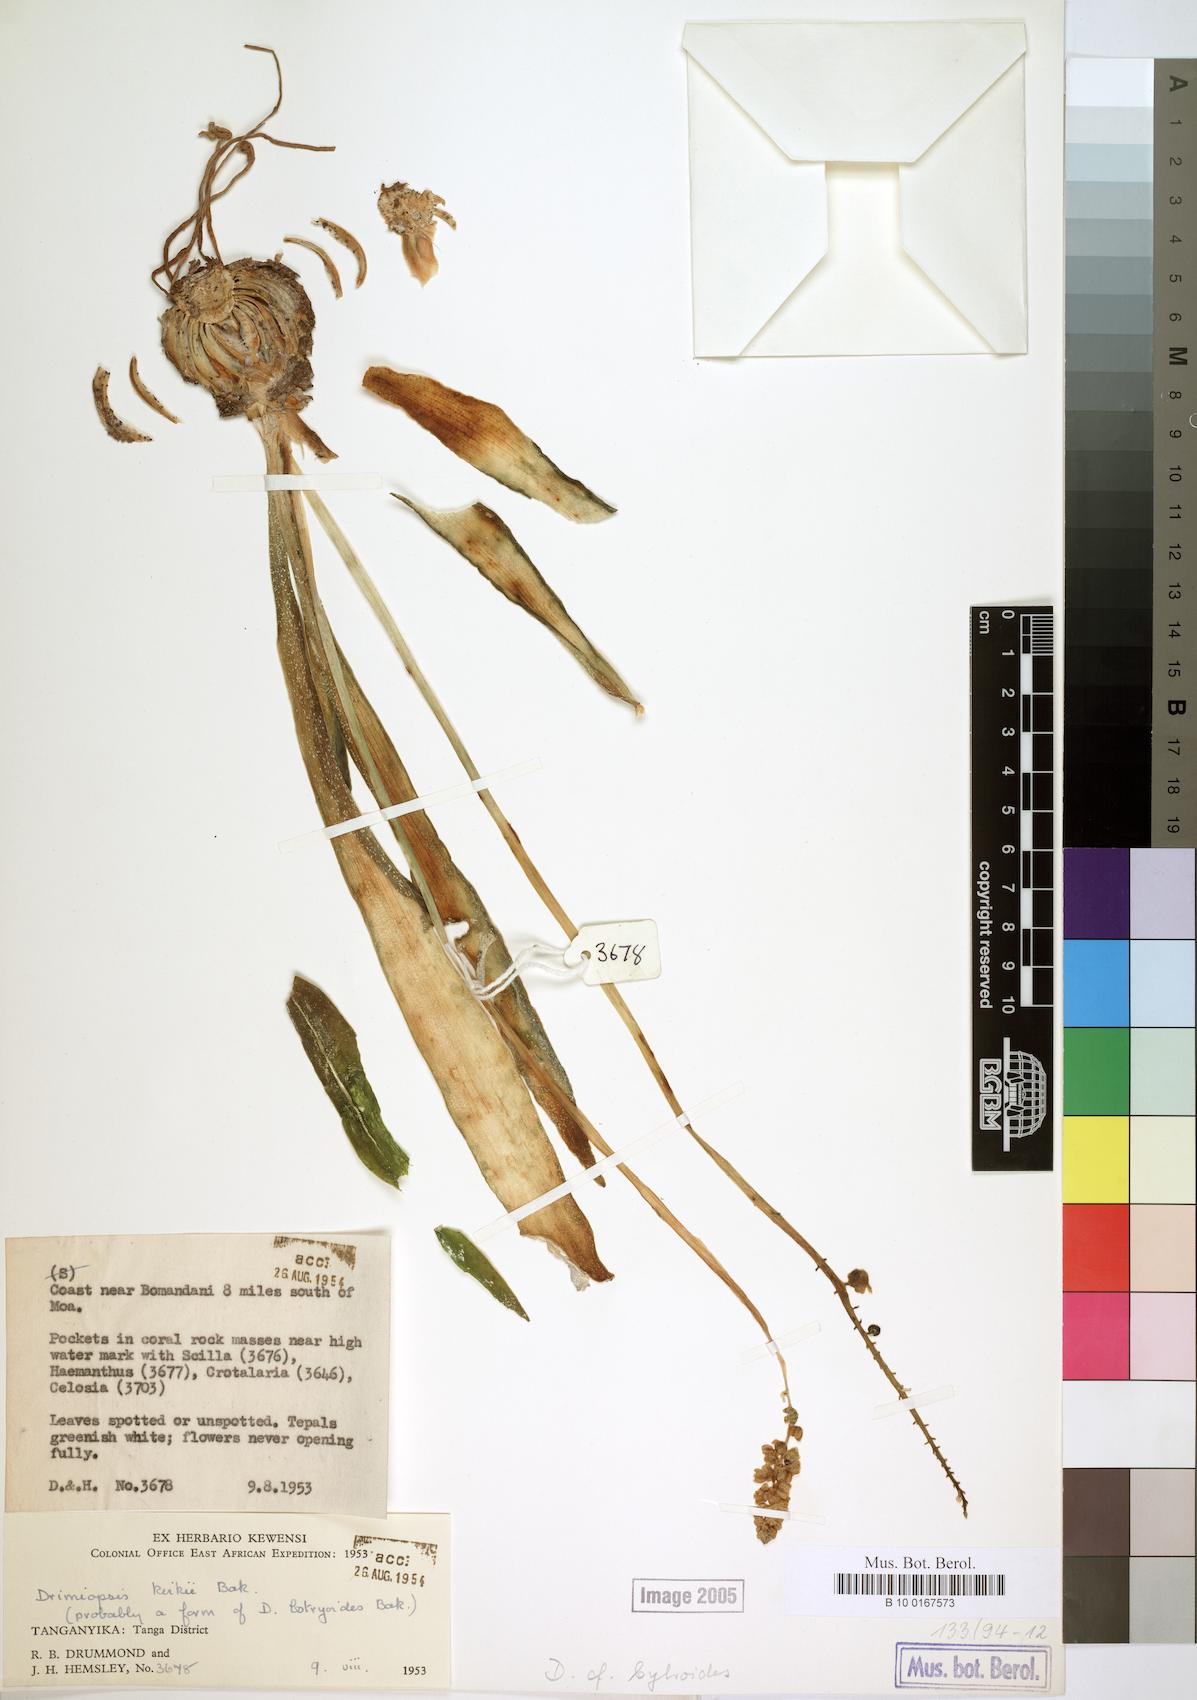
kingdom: Plantae
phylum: Tracheophyta
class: Liliopsida
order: Asparagales
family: Asparagaceae
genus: Drimiopsis
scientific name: Drimiopsis botryoides
